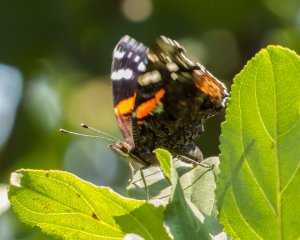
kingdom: Animalia
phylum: Arthropoda
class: Insecta
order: Lepidoptera
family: Nymphalidae
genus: Vanessa
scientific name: Vanessa atalanta
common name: Red Admiral
